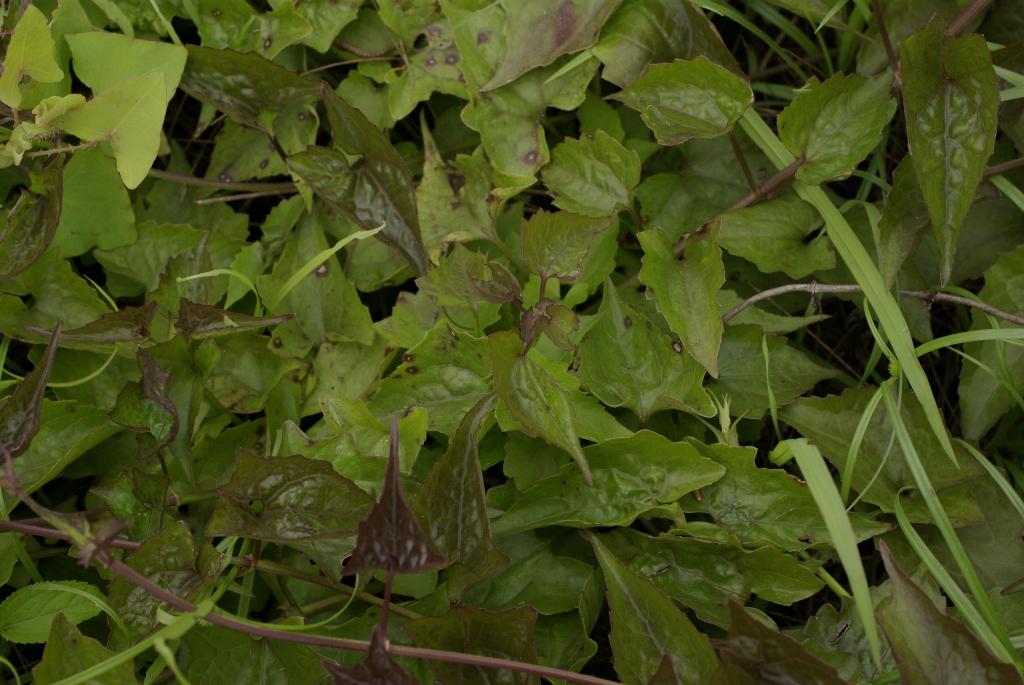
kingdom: Plantae
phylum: Tracheophyta
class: Magnoliopsida
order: Asterales
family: Asteraceae
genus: Mikania
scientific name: Mikania micrantha
